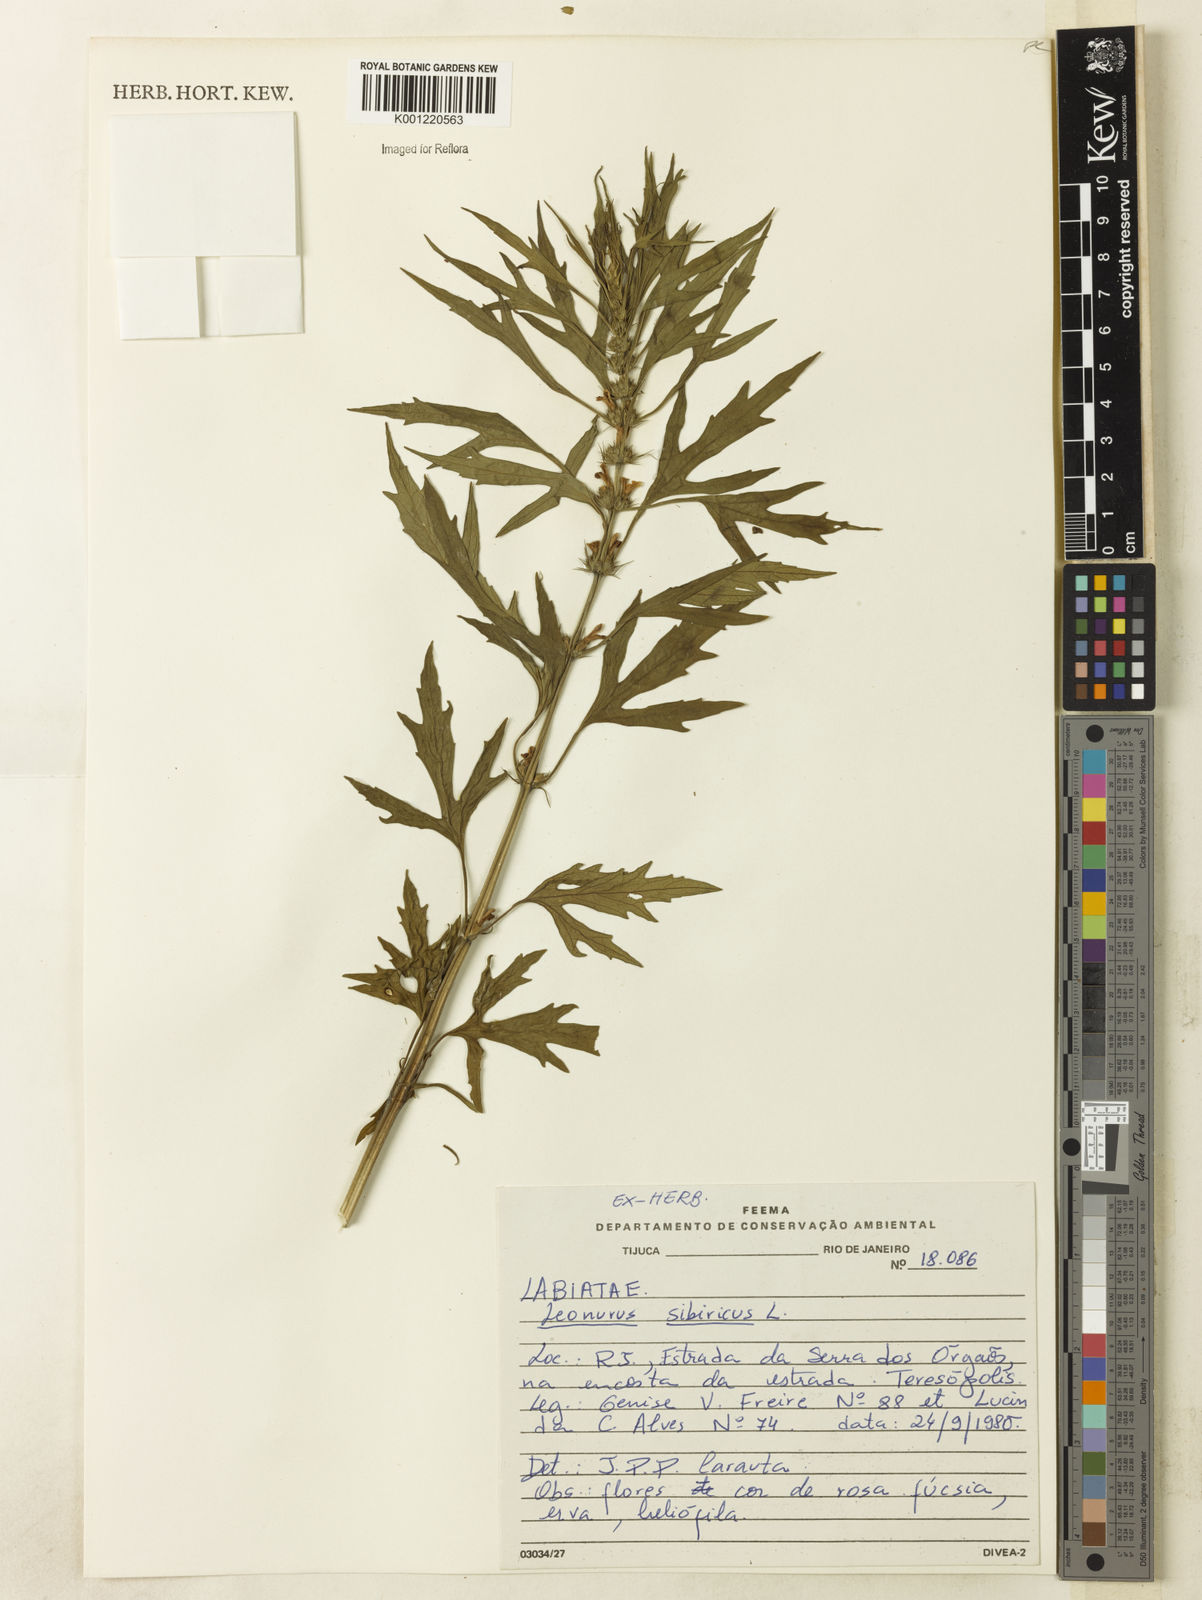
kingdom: Plantae
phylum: Tracheophyta
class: Magnoliopsida
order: Lamiales
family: Lamiaceae
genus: Leonurus
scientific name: Leonurus japonicus
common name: Honeyweed
